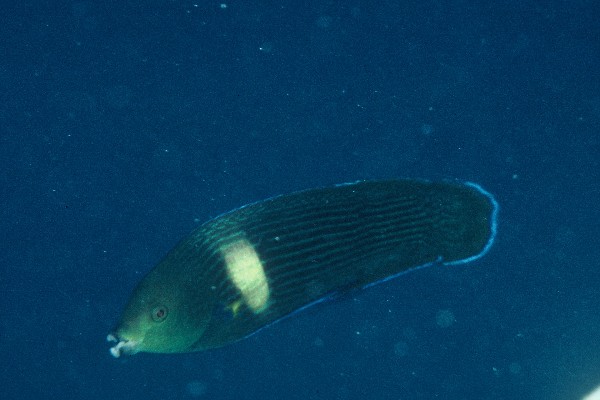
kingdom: Animalia
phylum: Chordata
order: Perciformes
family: Labridae
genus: Labrichthys
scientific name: Labrichthys unilineatus
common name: Onelined wrasse
